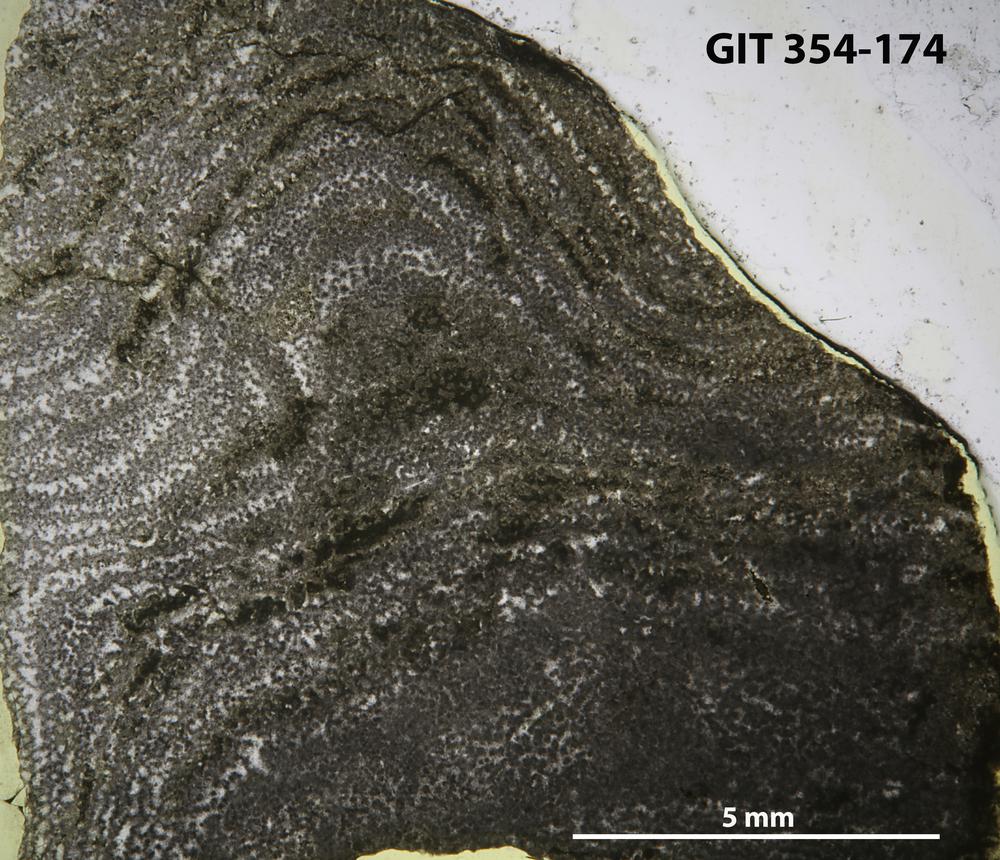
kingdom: Animalia
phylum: Porifera
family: Clathrodictyidae
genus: Clathrodictyon
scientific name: Clathrodictyon boreale
